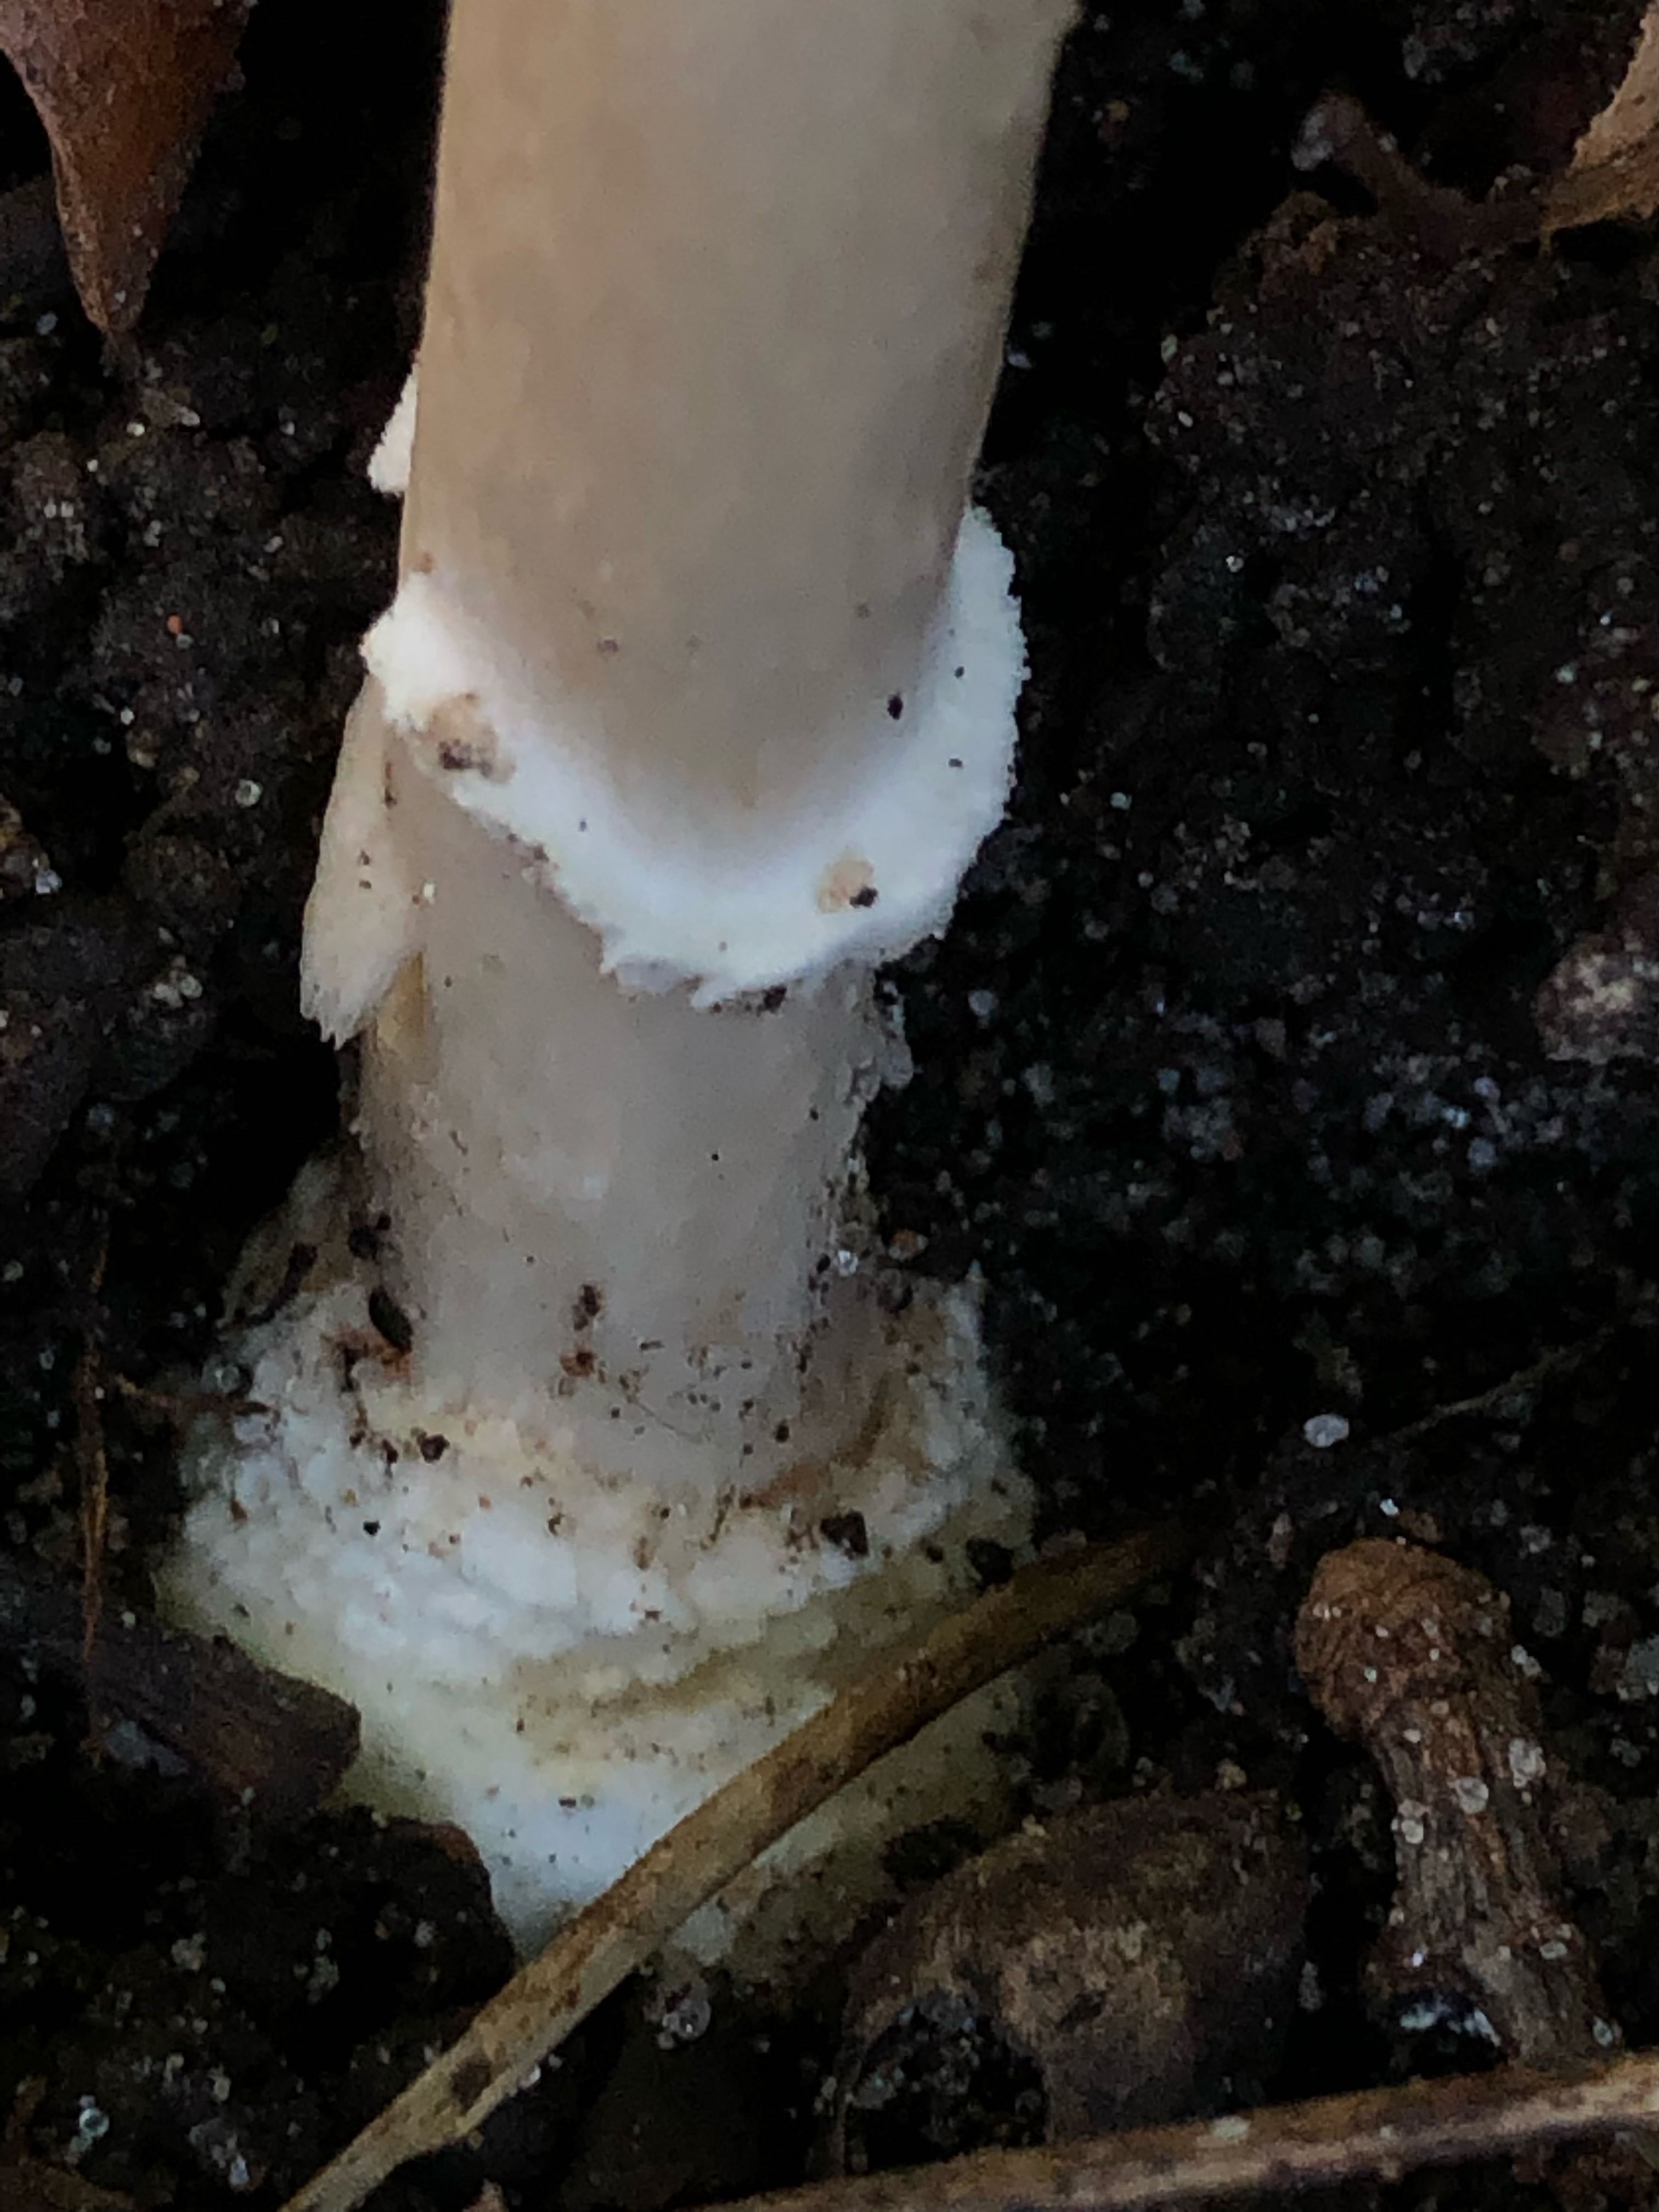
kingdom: Fungi
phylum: Basidiomycota
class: Agaricomycetes
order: Agaricales
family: Amanitaceae
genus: Amanita
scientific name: Amanita pantherina
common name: panter-fluesvamp
